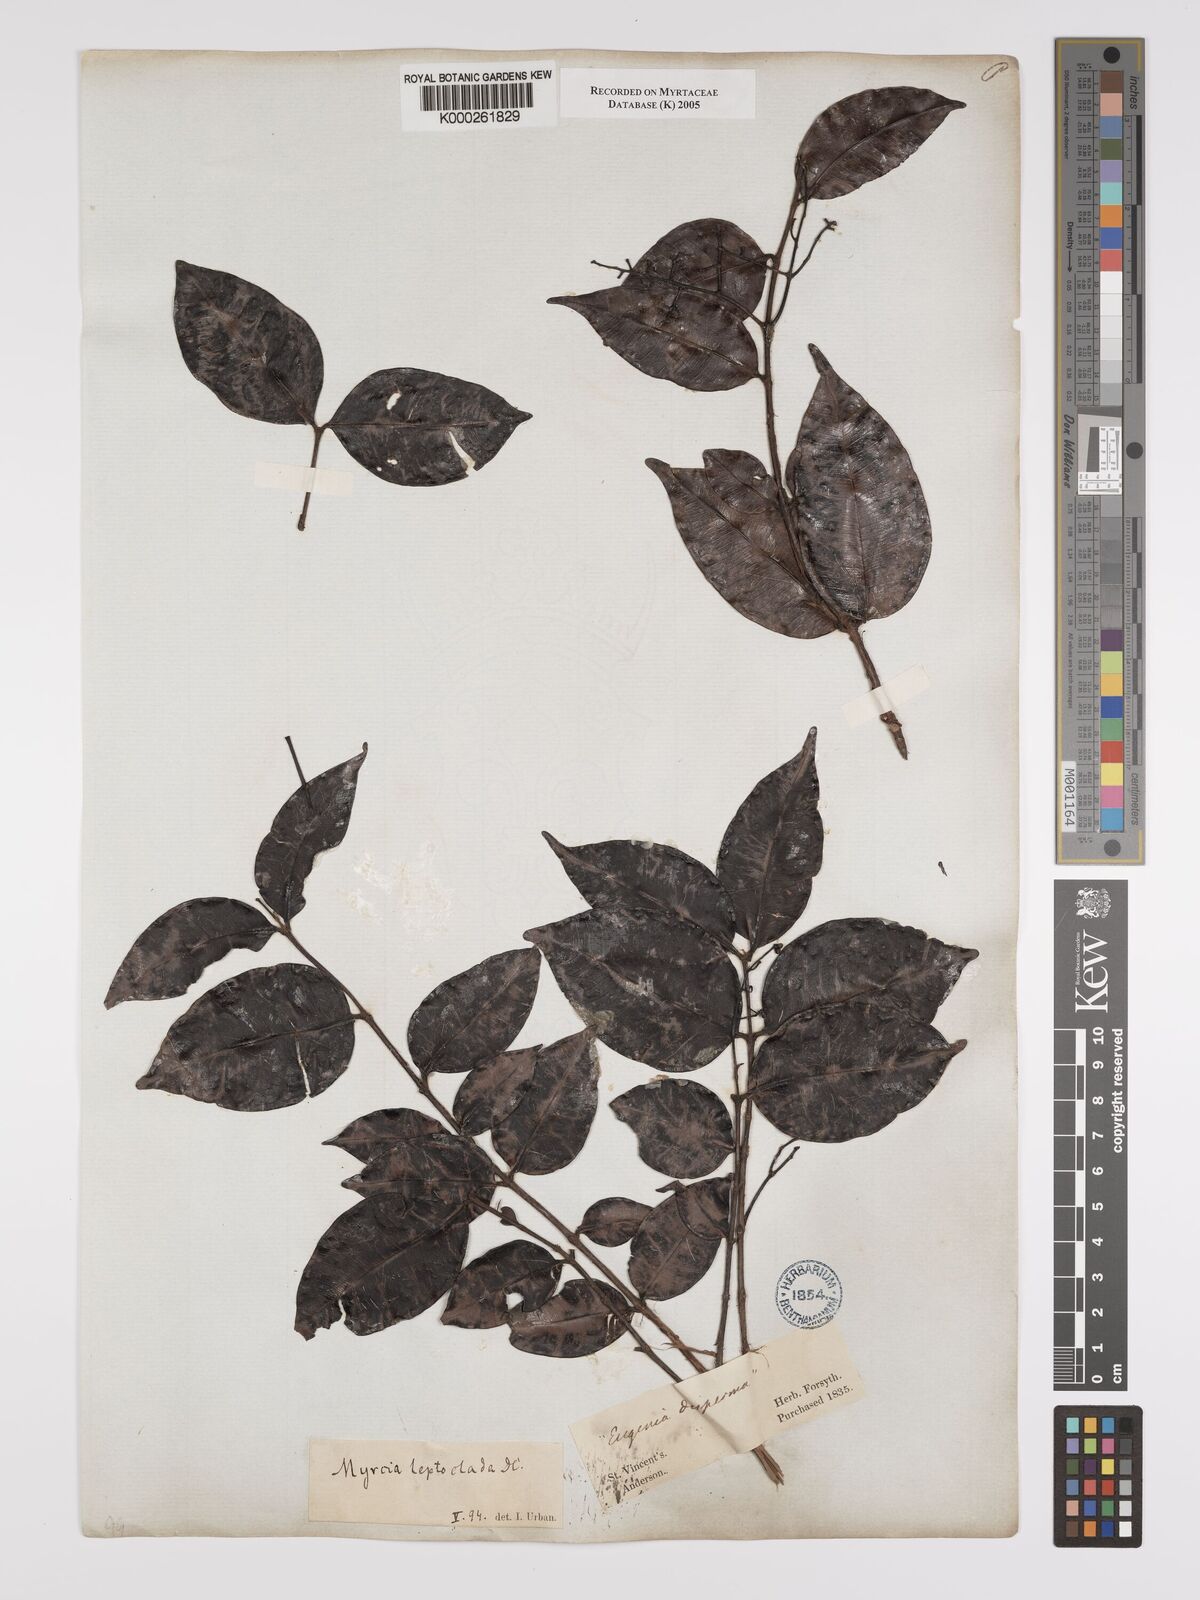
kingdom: Plantae
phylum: Tracheophyta
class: Magnoliopsida
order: Myrtales
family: Myrtaceae
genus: Myrcia
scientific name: Myrcia amazonica
